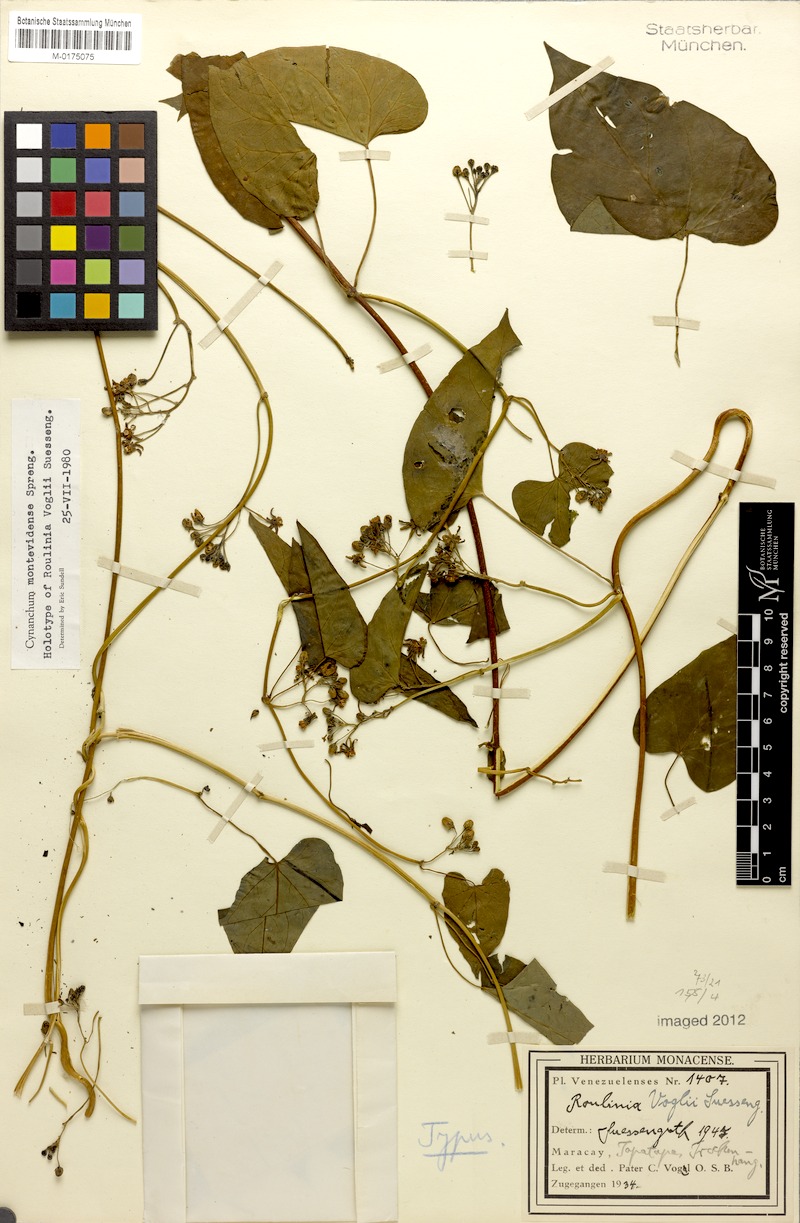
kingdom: Plantae
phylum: Tracheophyta
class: Magnoliopsida
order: Gentianales
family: Apocynaceae
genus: Cynanchum
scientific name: Cynanchum montevidense
